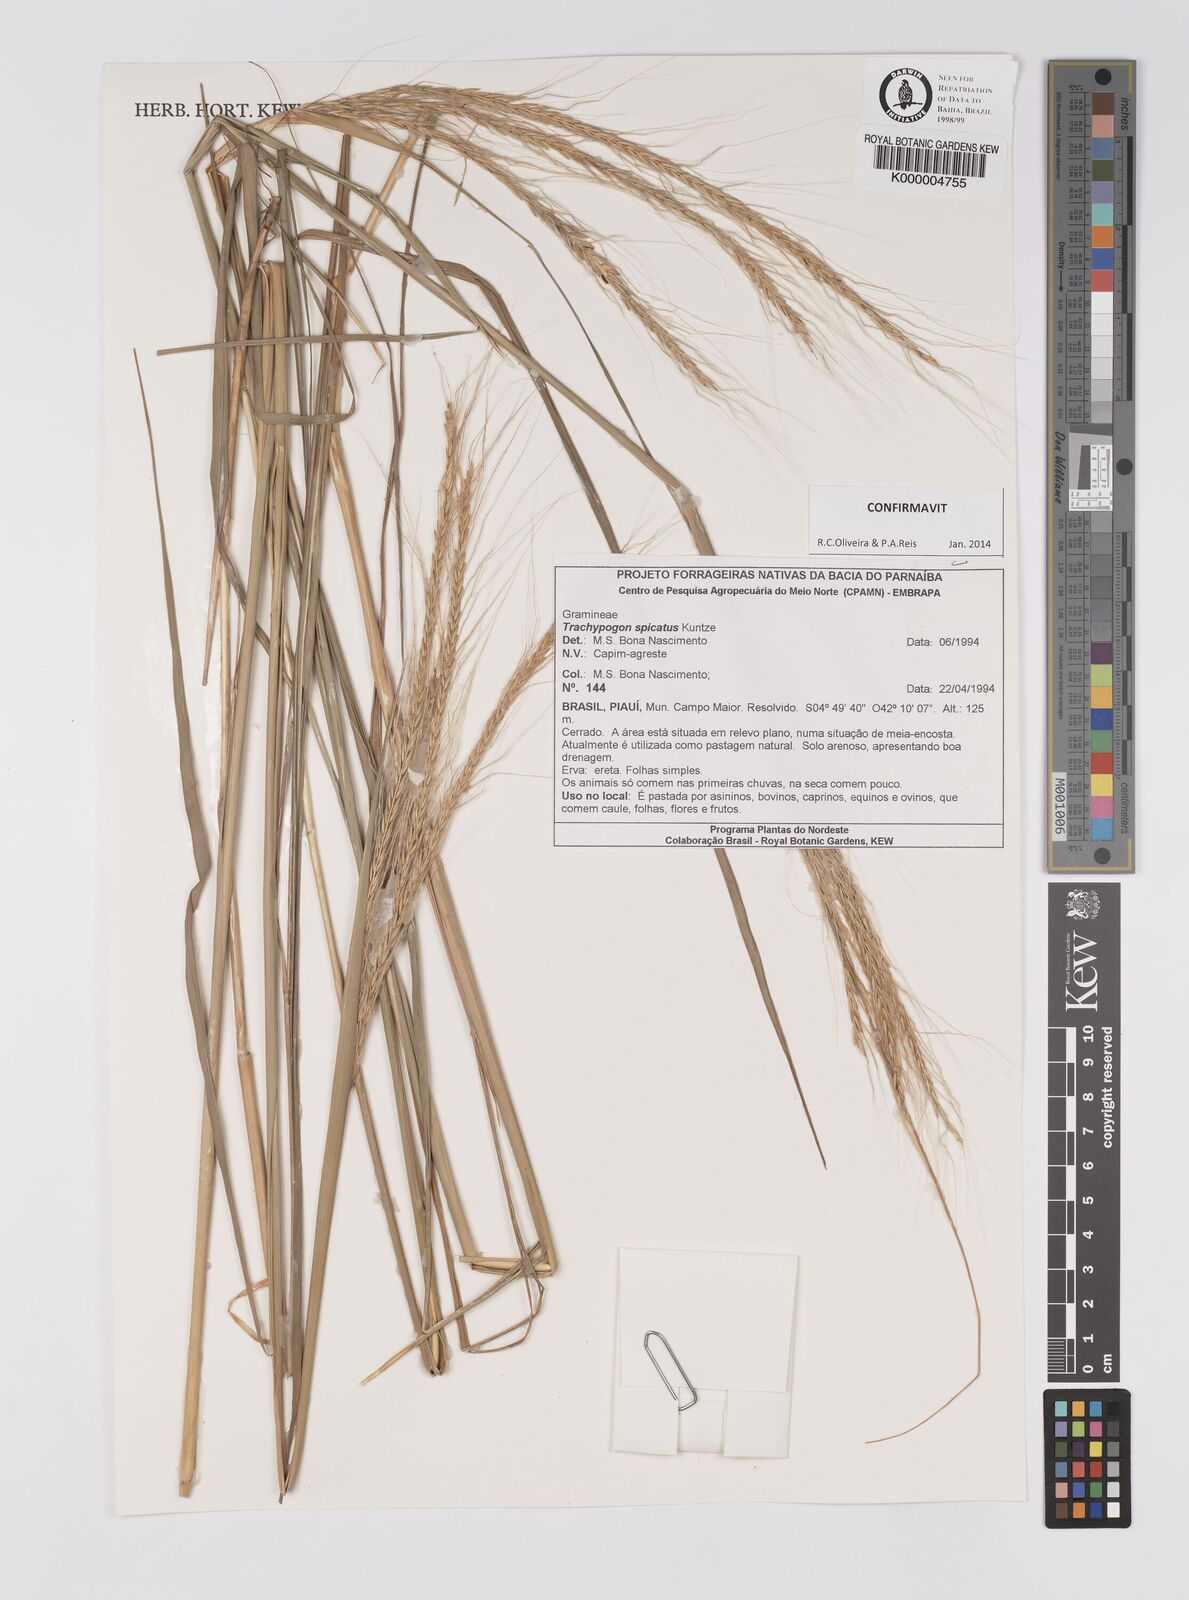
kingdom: Plantae
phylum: Tracheophyta
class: Liliopsida
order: Poales
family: Poaceae
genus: Trachypogon
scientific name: Trachypogon spicatus
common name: Crinkle-awn
